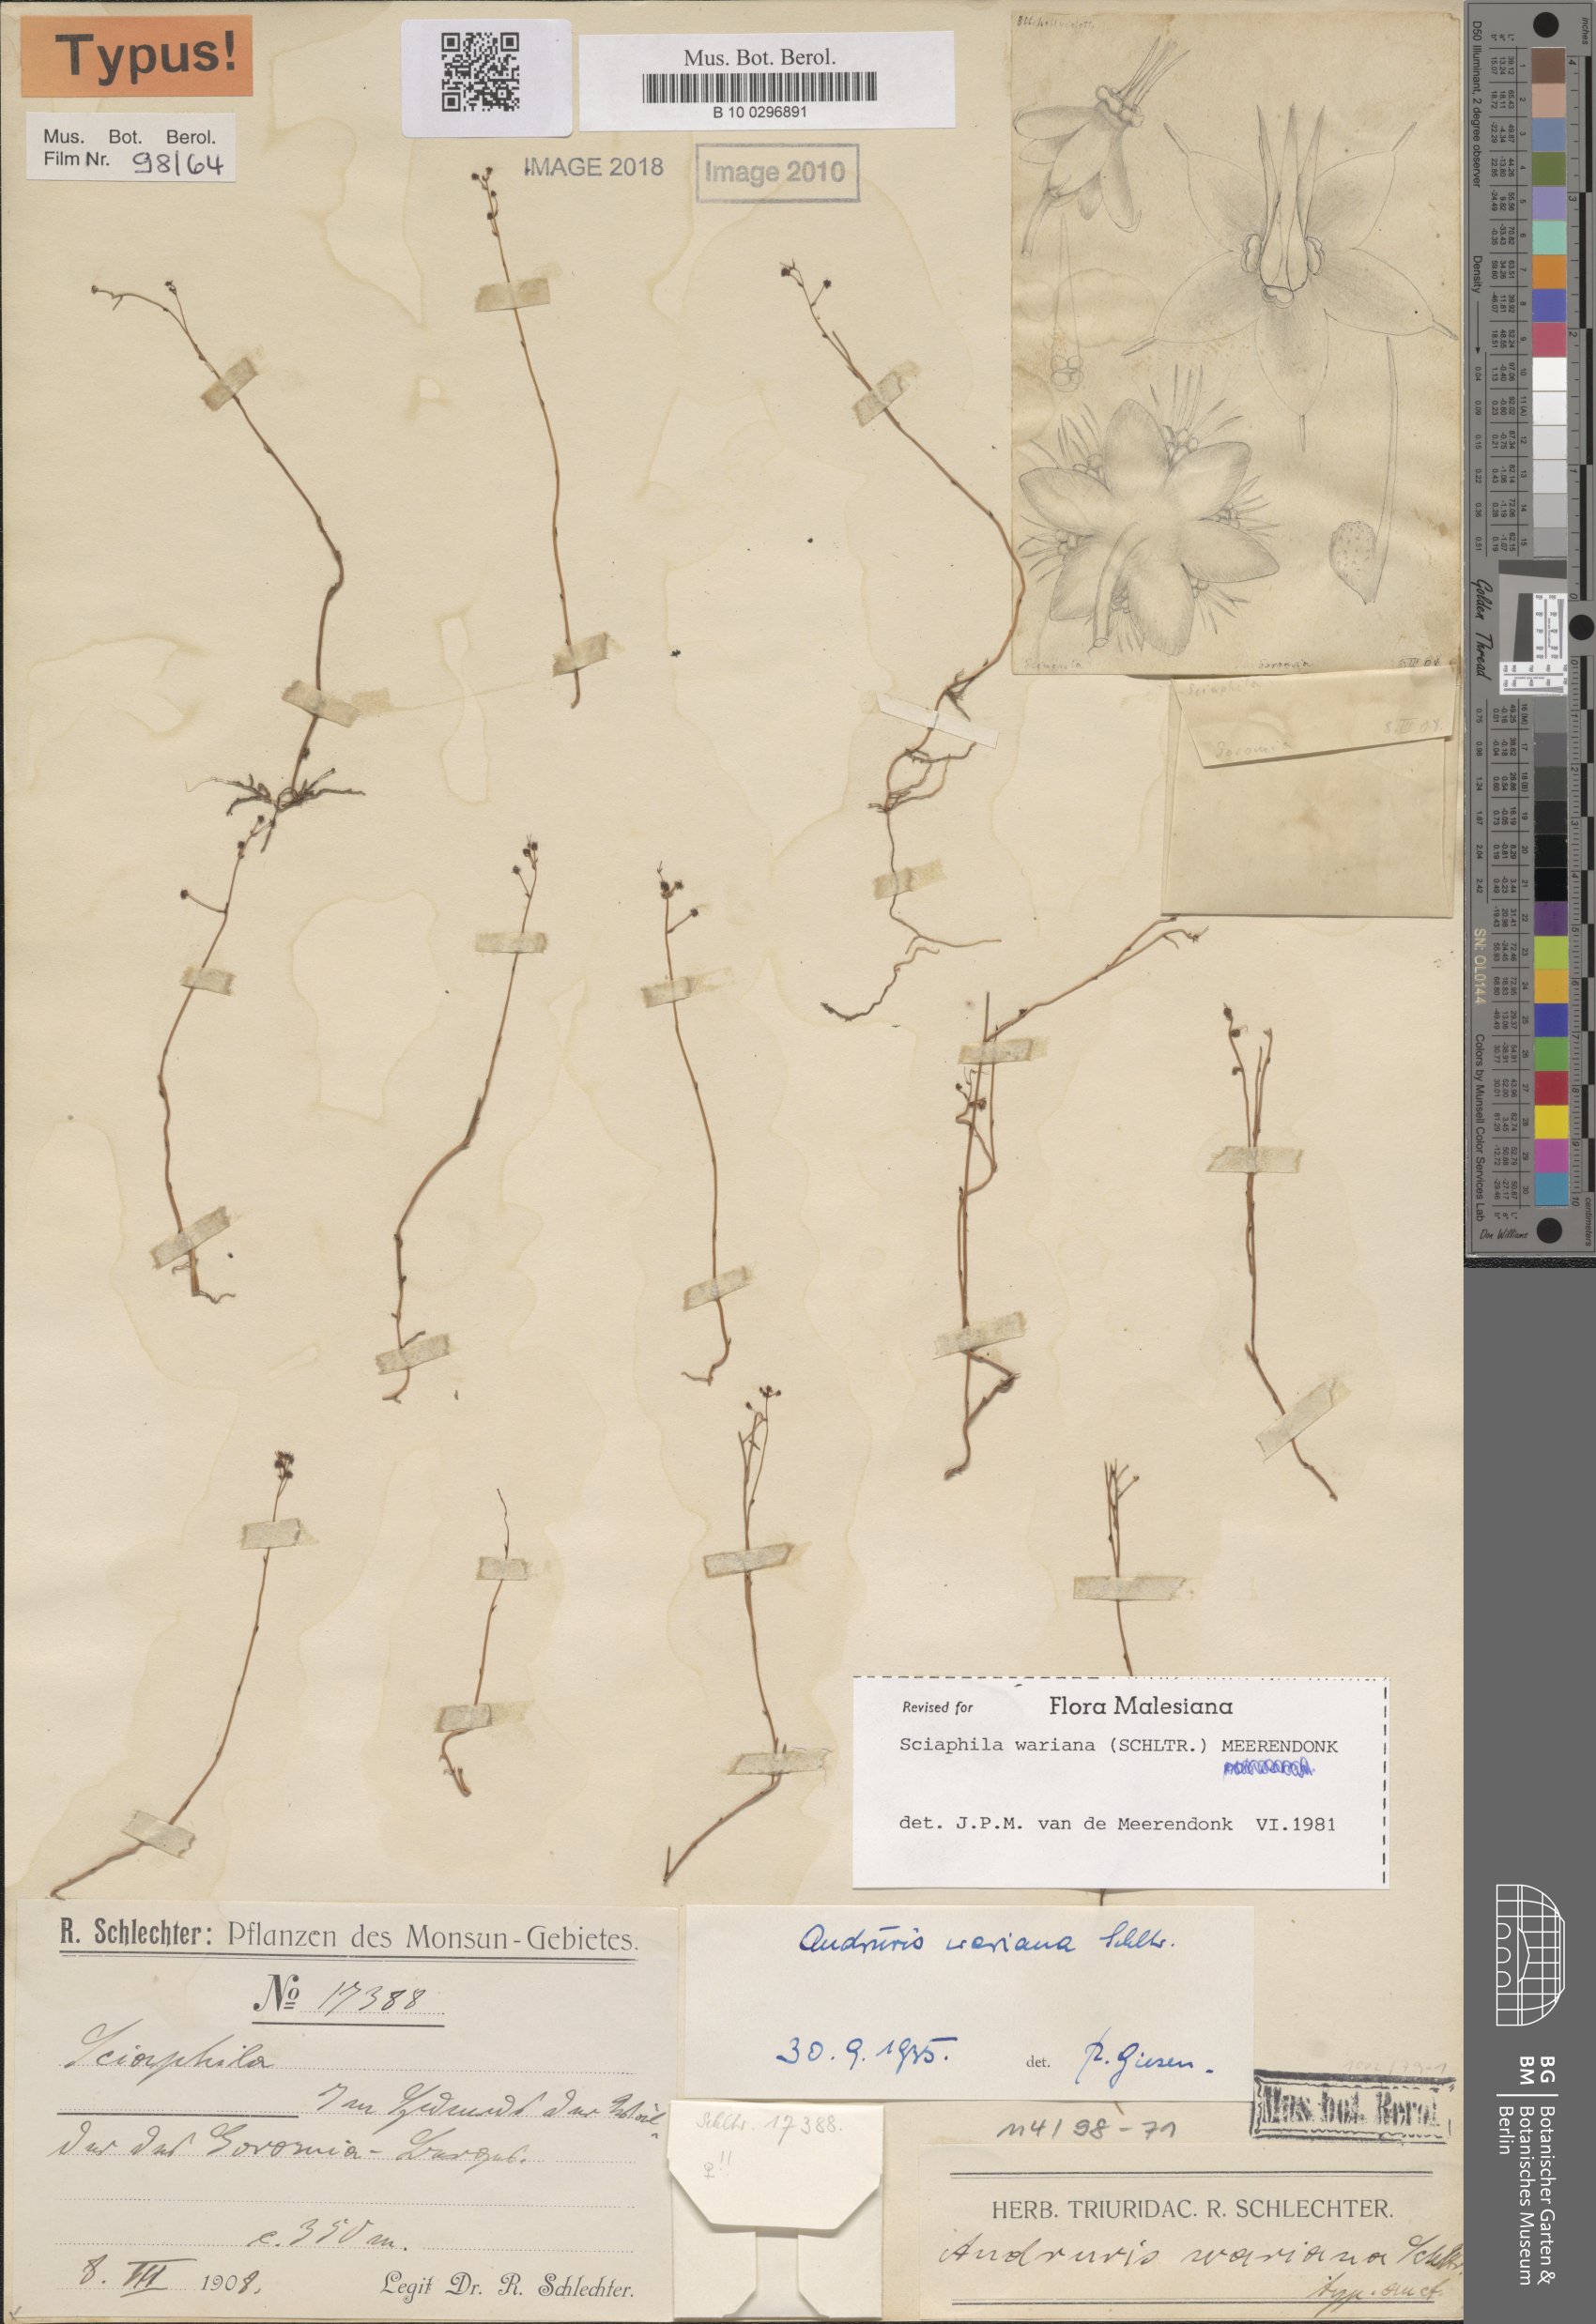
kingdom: Plantae
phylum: Tracheophyta
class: Liliopsida
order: Pandanales
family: Triuridaceae
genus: Sciaphila
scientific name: Sciaphila wariana
